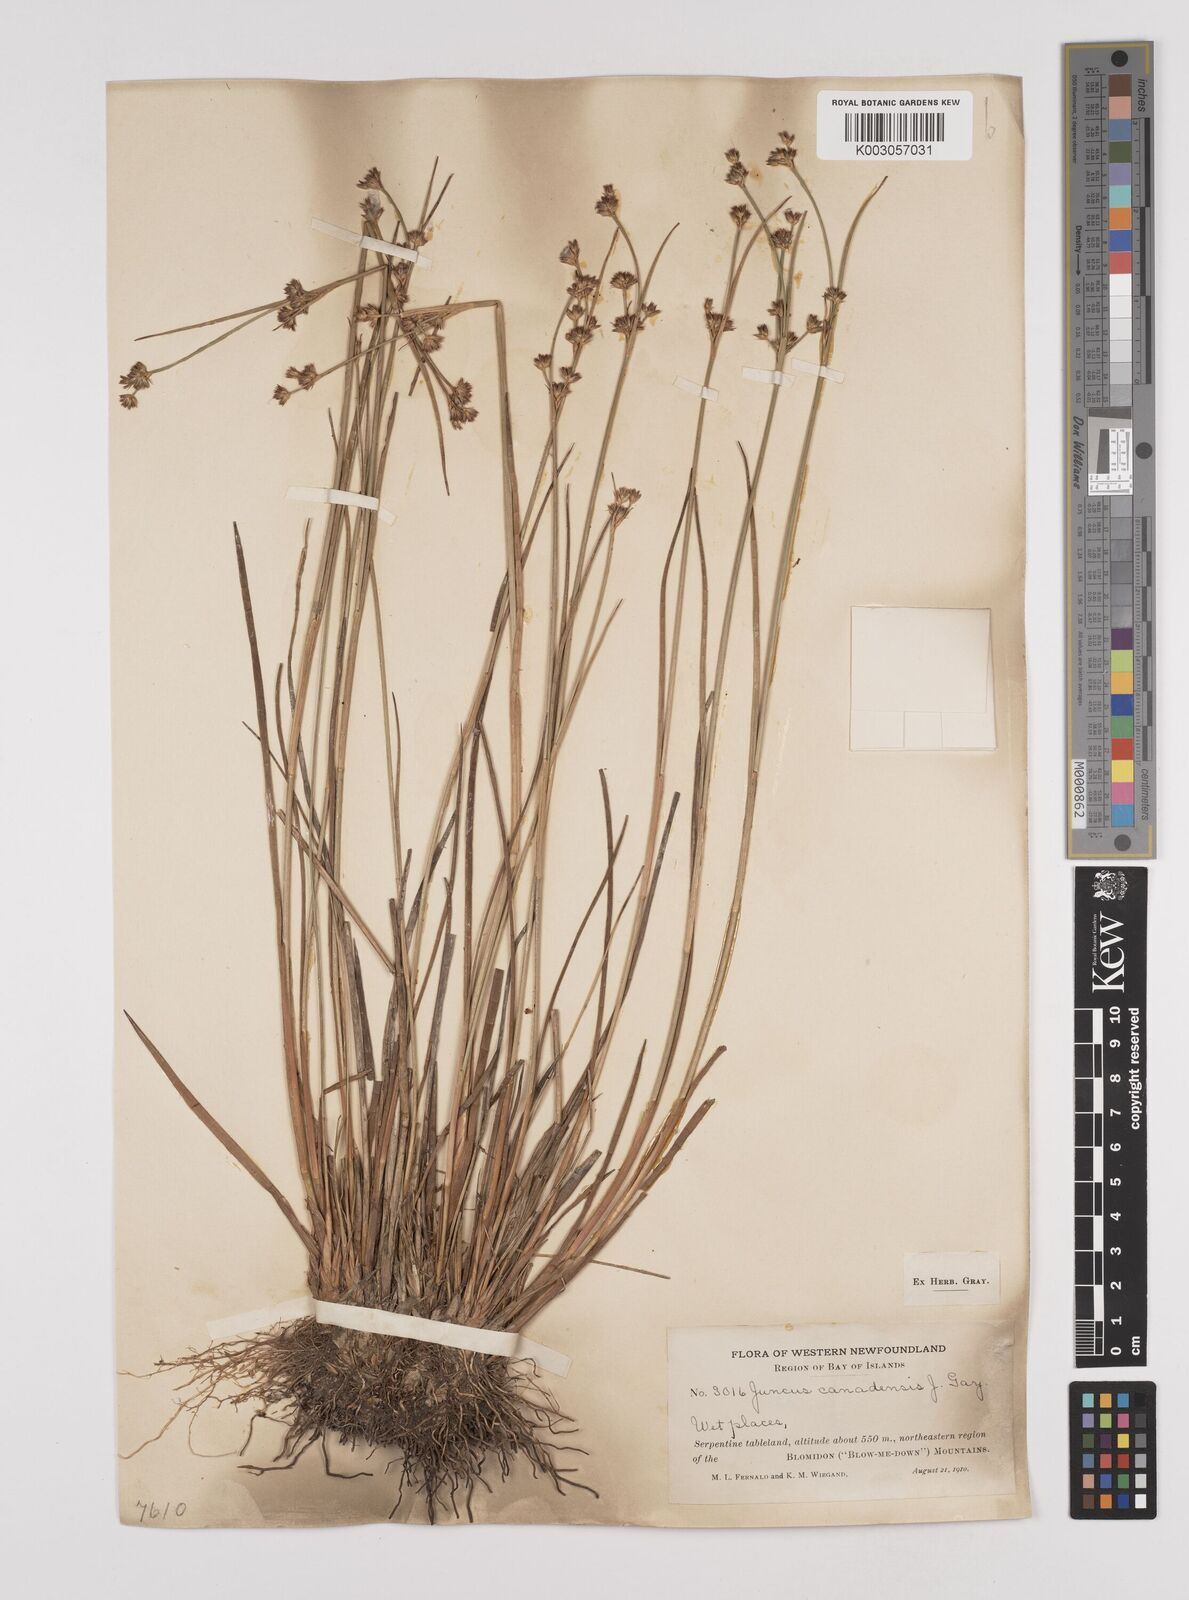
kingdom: Plantae
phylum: Tracheophyta
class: Liliopsida
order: Poales
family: Juncaceae
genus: Juncus
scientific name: Juncus canadensis
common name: Canada rush
